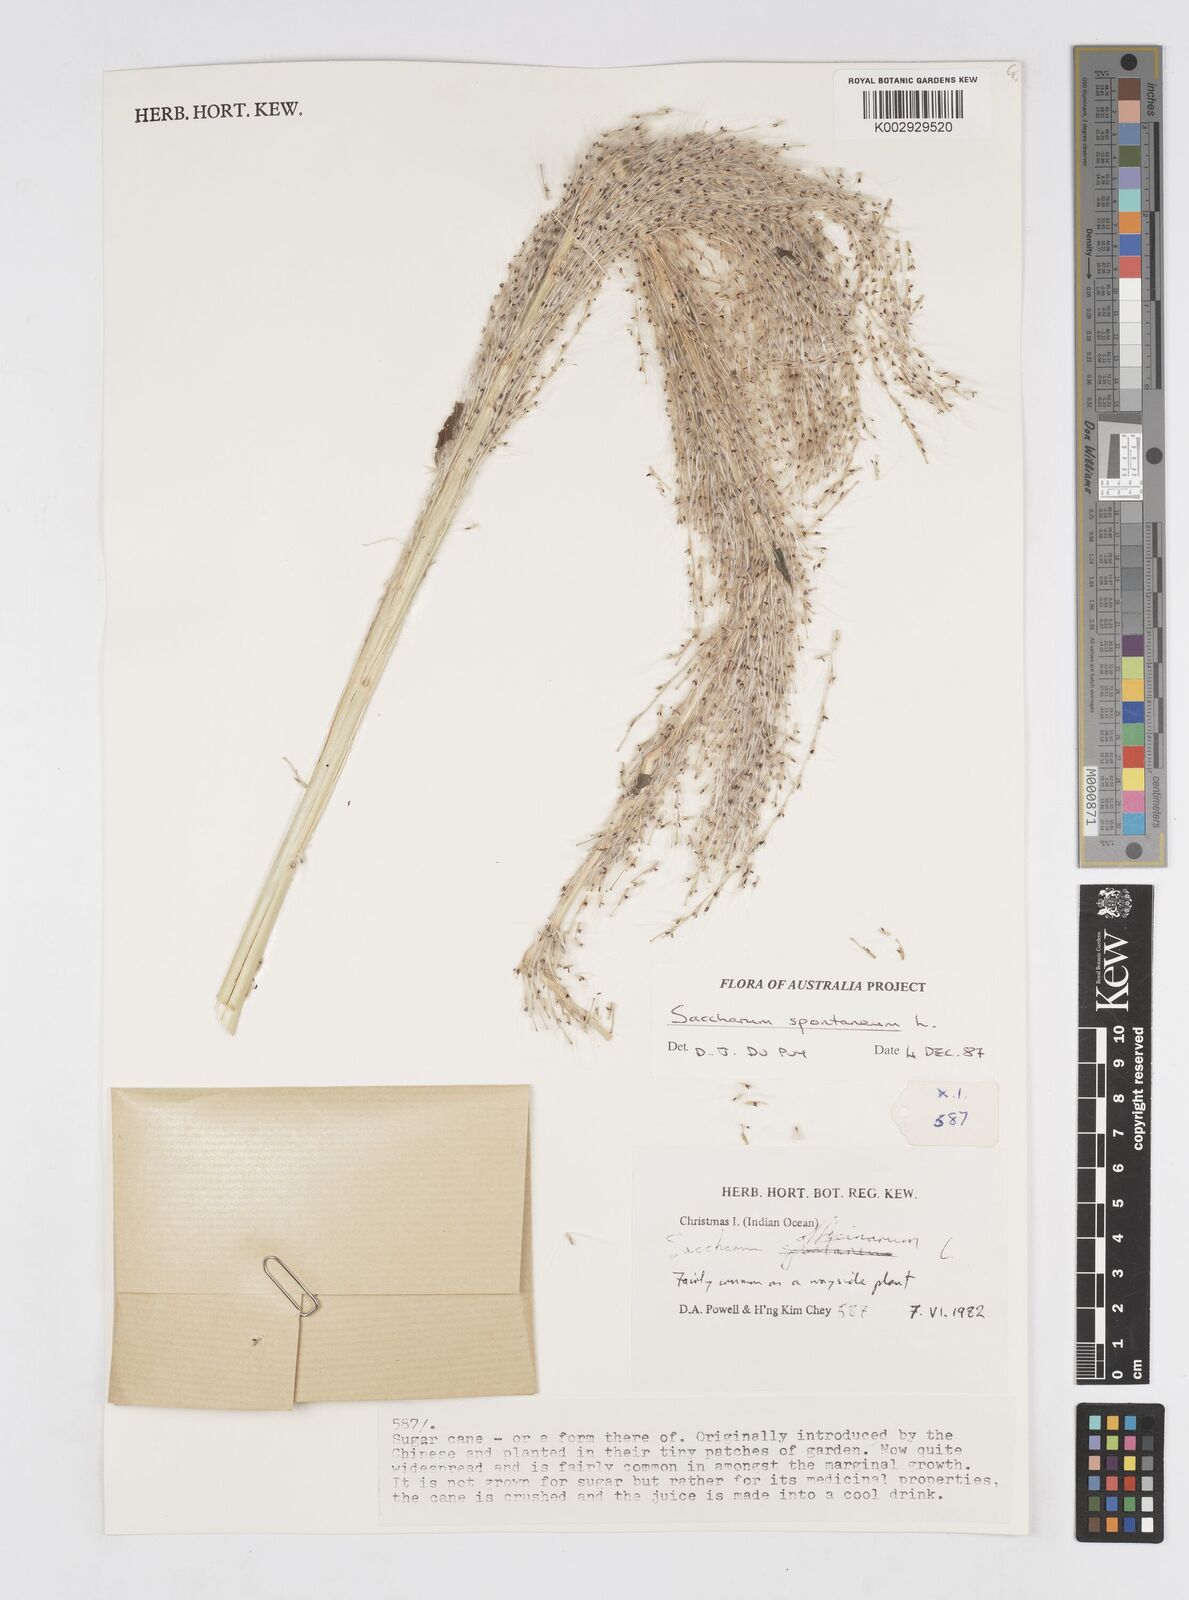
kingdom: Plantae
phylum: Tracheophyta
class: Liliopsida
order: Poales
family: Poaceae
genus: Saccharum
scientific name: Saccharum spontaneum
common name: Wild sugarcane
